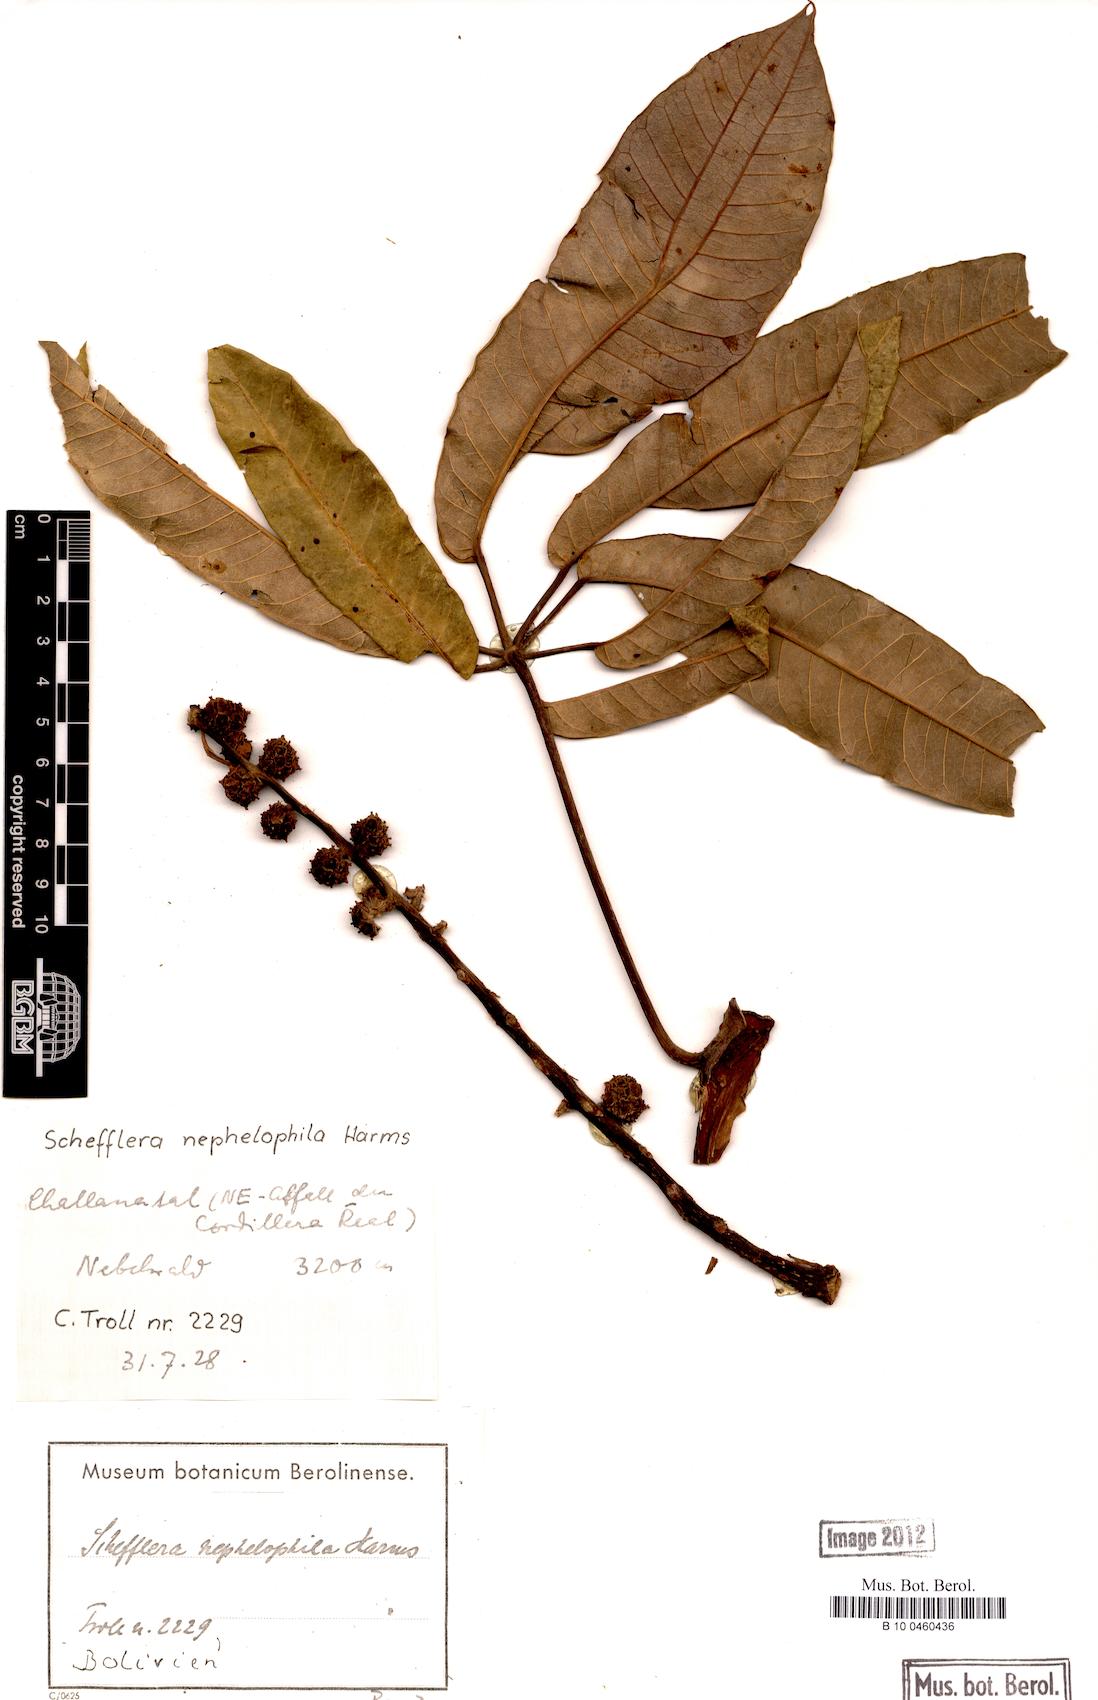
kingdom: Plantae
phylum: Tracheophyta
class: Magnoliopsida
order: Apiales
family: Araliaceae
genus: Sciodaphyllum
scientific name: Sciodaphyllum nephelophilum
